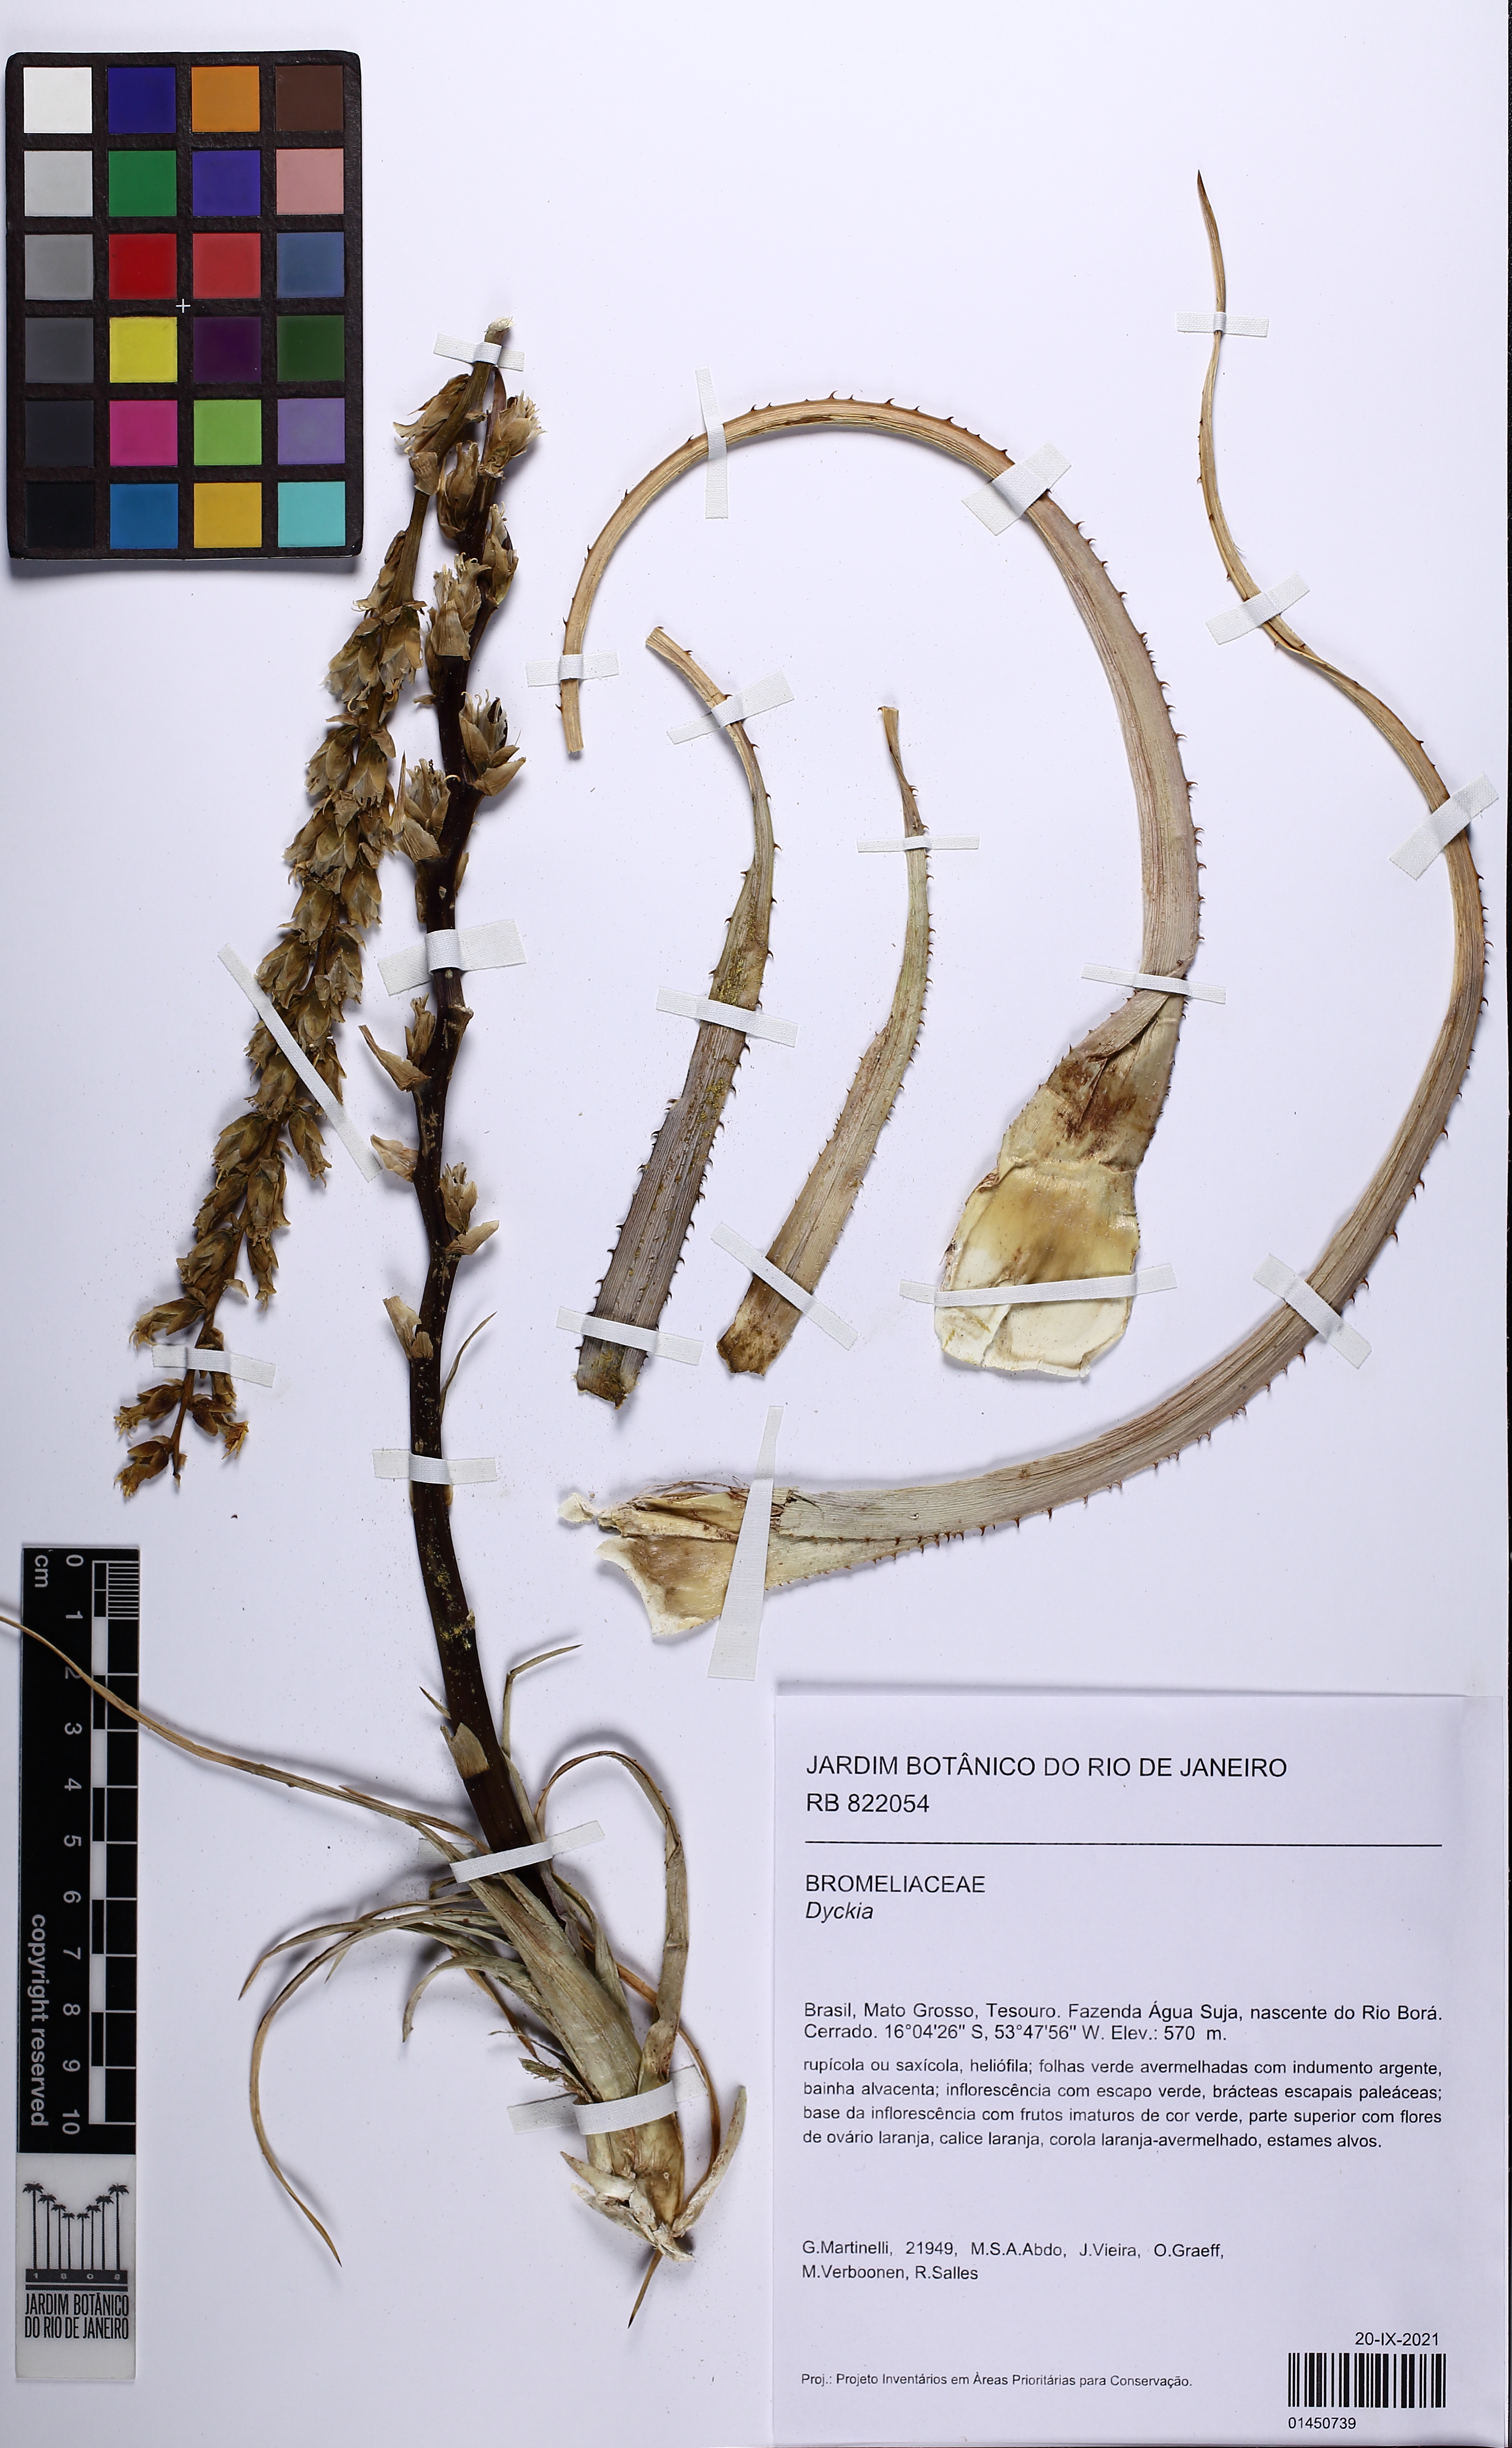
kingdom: Plantae
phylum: Tracheophyta
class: Liliopsida
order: Poales
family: Bromeliaceae
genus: Dyckia
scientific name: Dyckia
